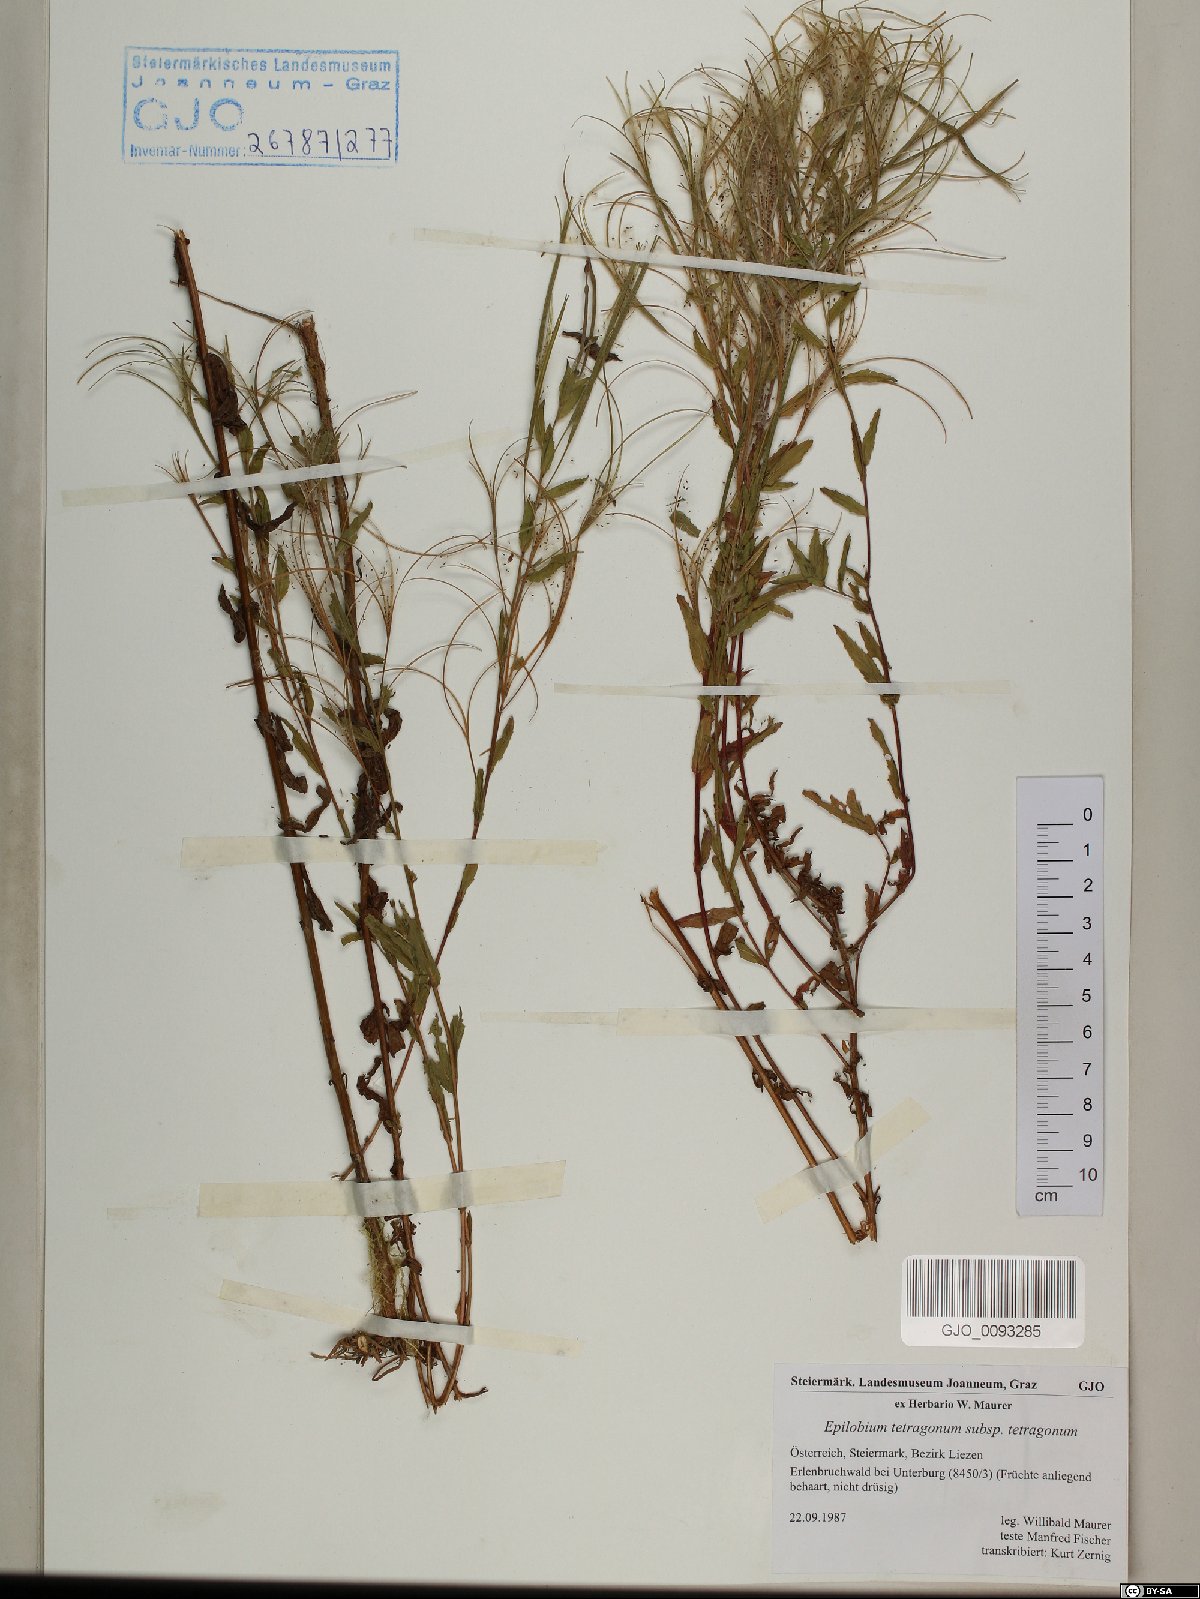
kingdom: Plantae
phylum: Tracheophyta
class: Magnoliopsida
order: Myrtales
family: Onagraceae
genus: Epilobium
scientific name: Epilobium tetragonum
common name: Square-stemmed willowherb
